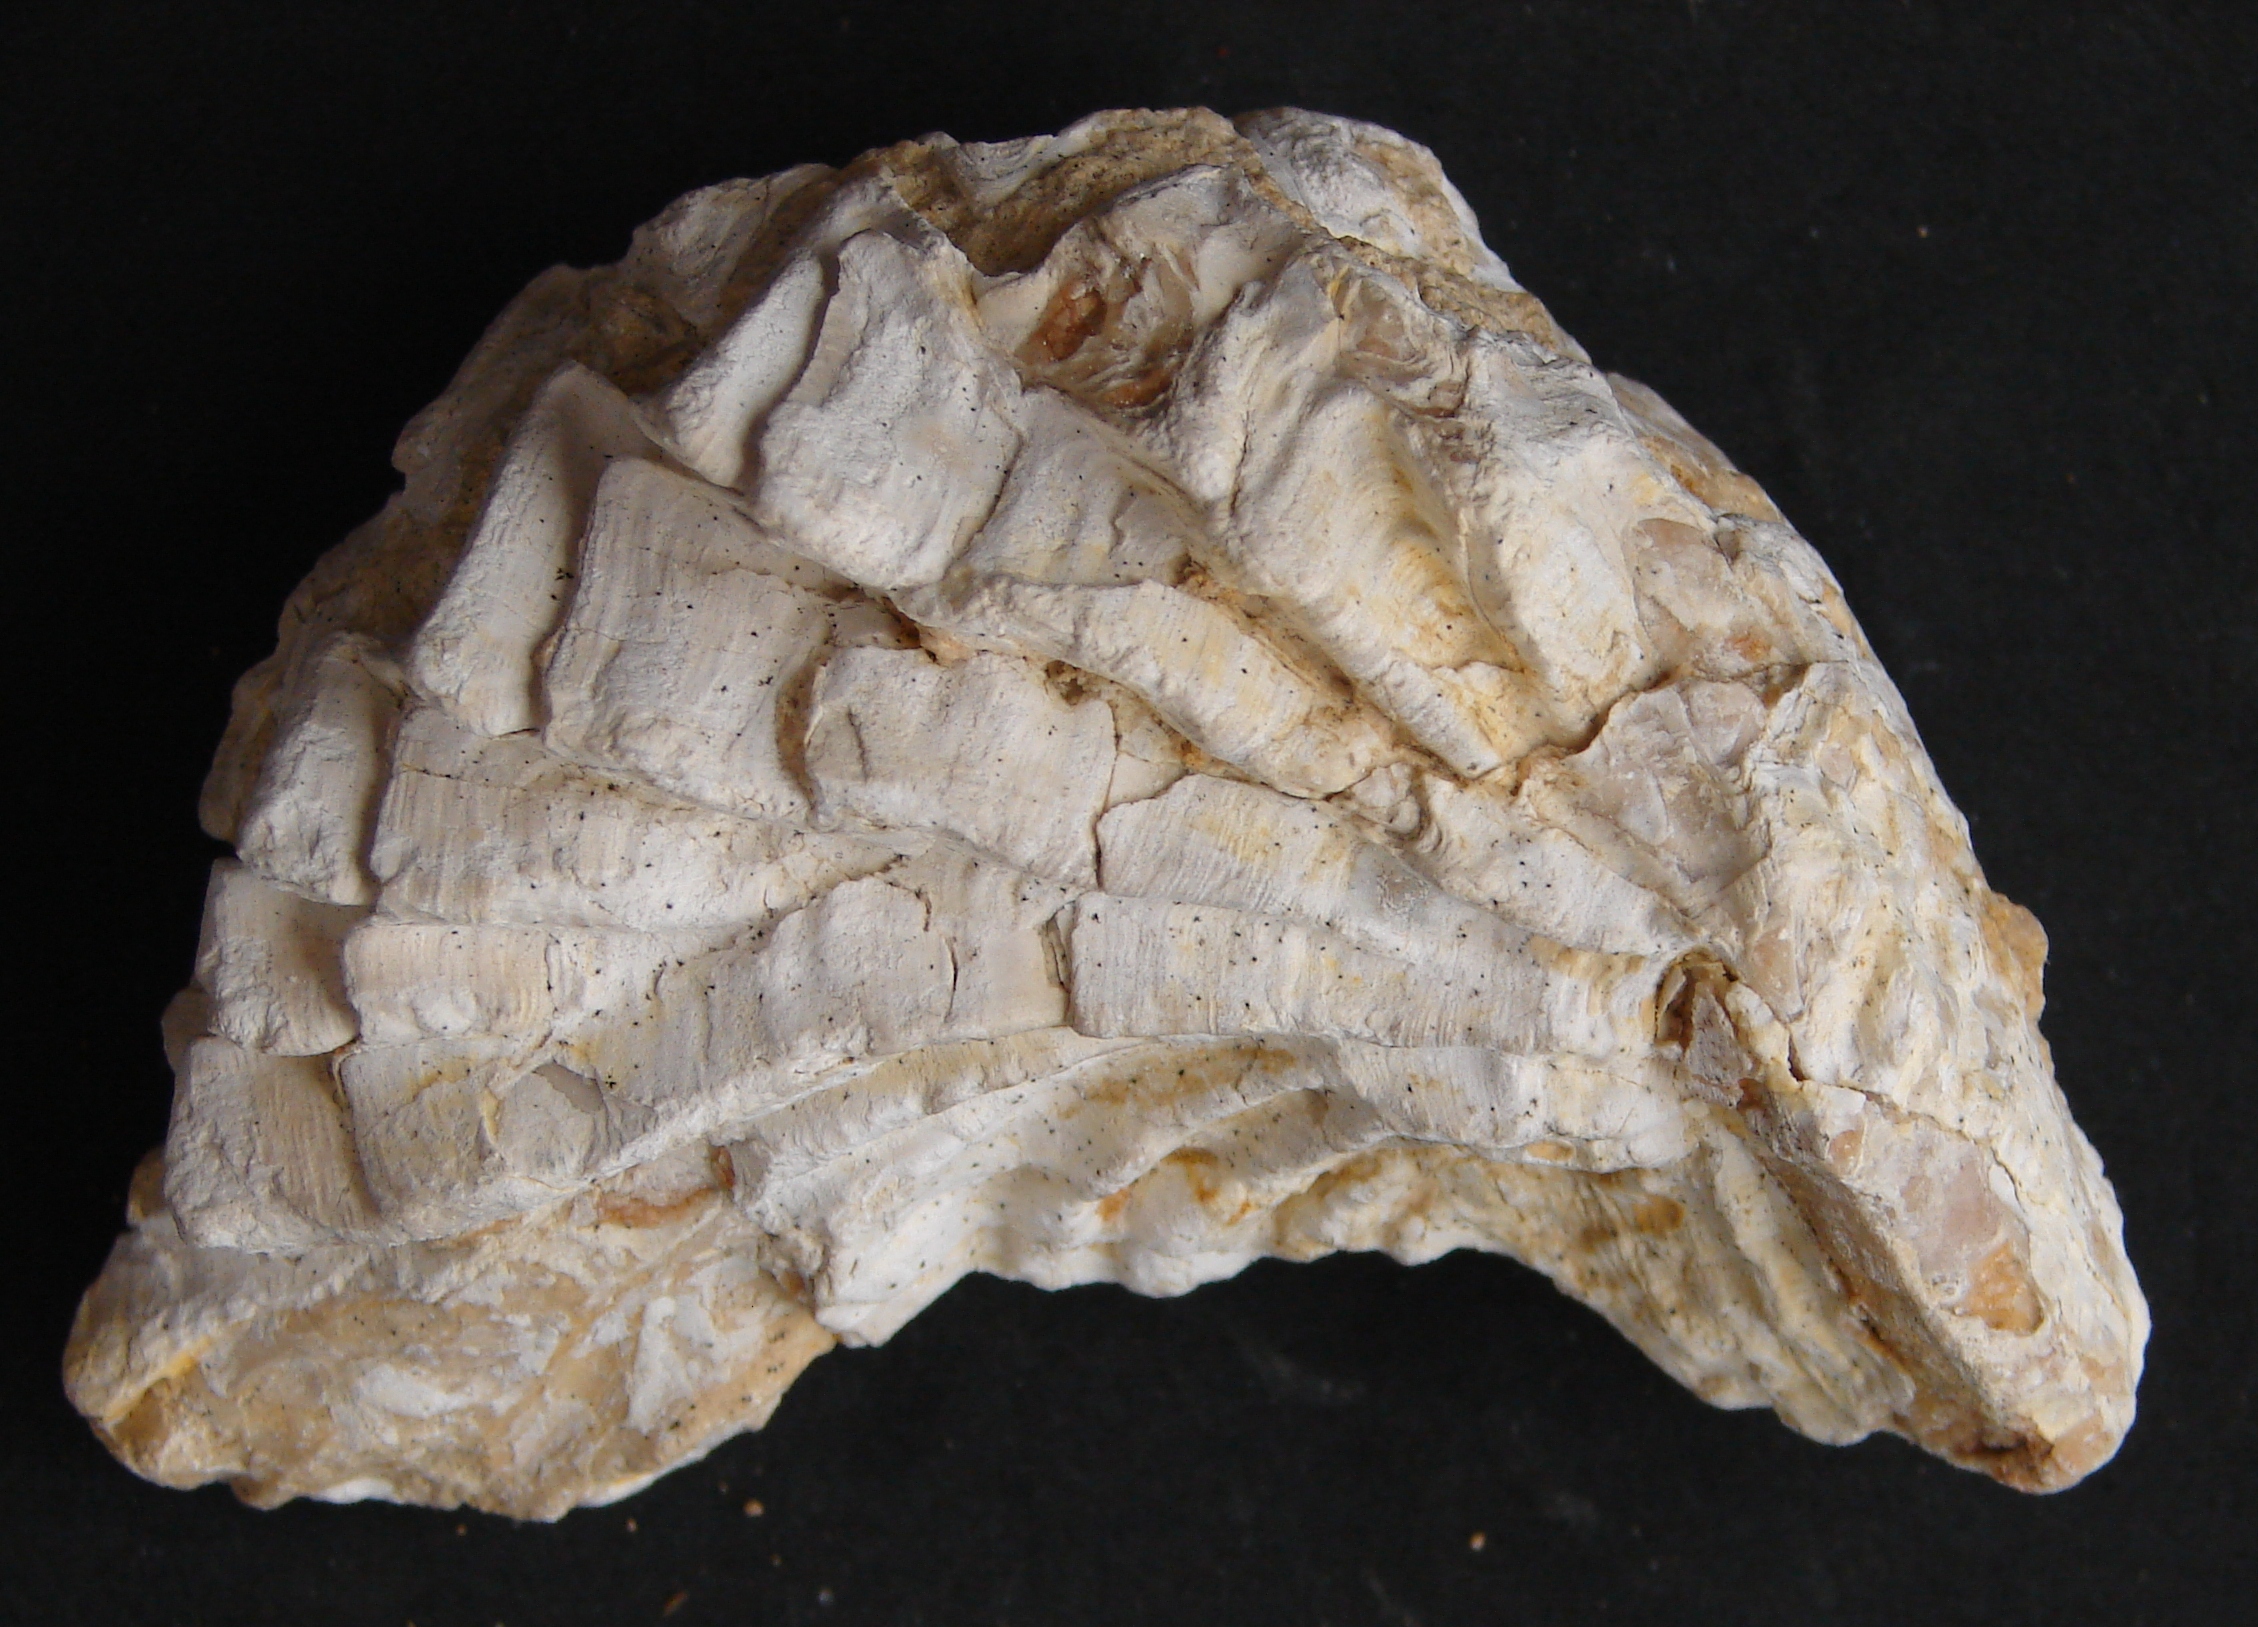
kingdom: Animalia
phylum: Mollusca
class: Bivalvia
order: Ostreida
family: Ostreidae
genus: Ostrea
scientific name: Ostrea marshii
